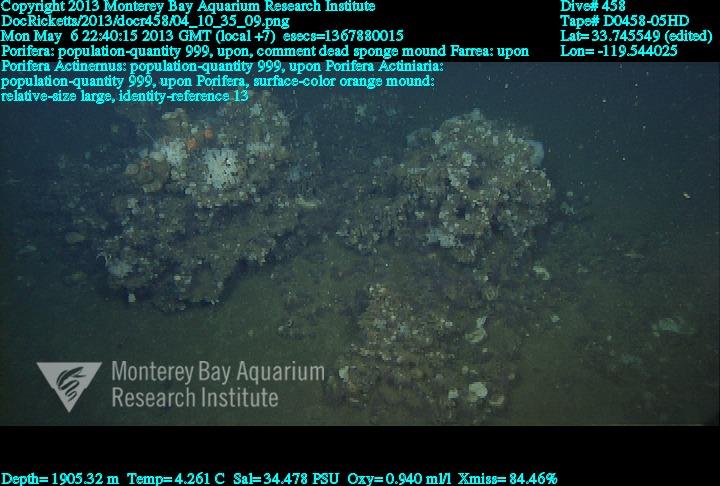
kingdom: Animalia
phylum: Porifera
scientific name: Porifera
